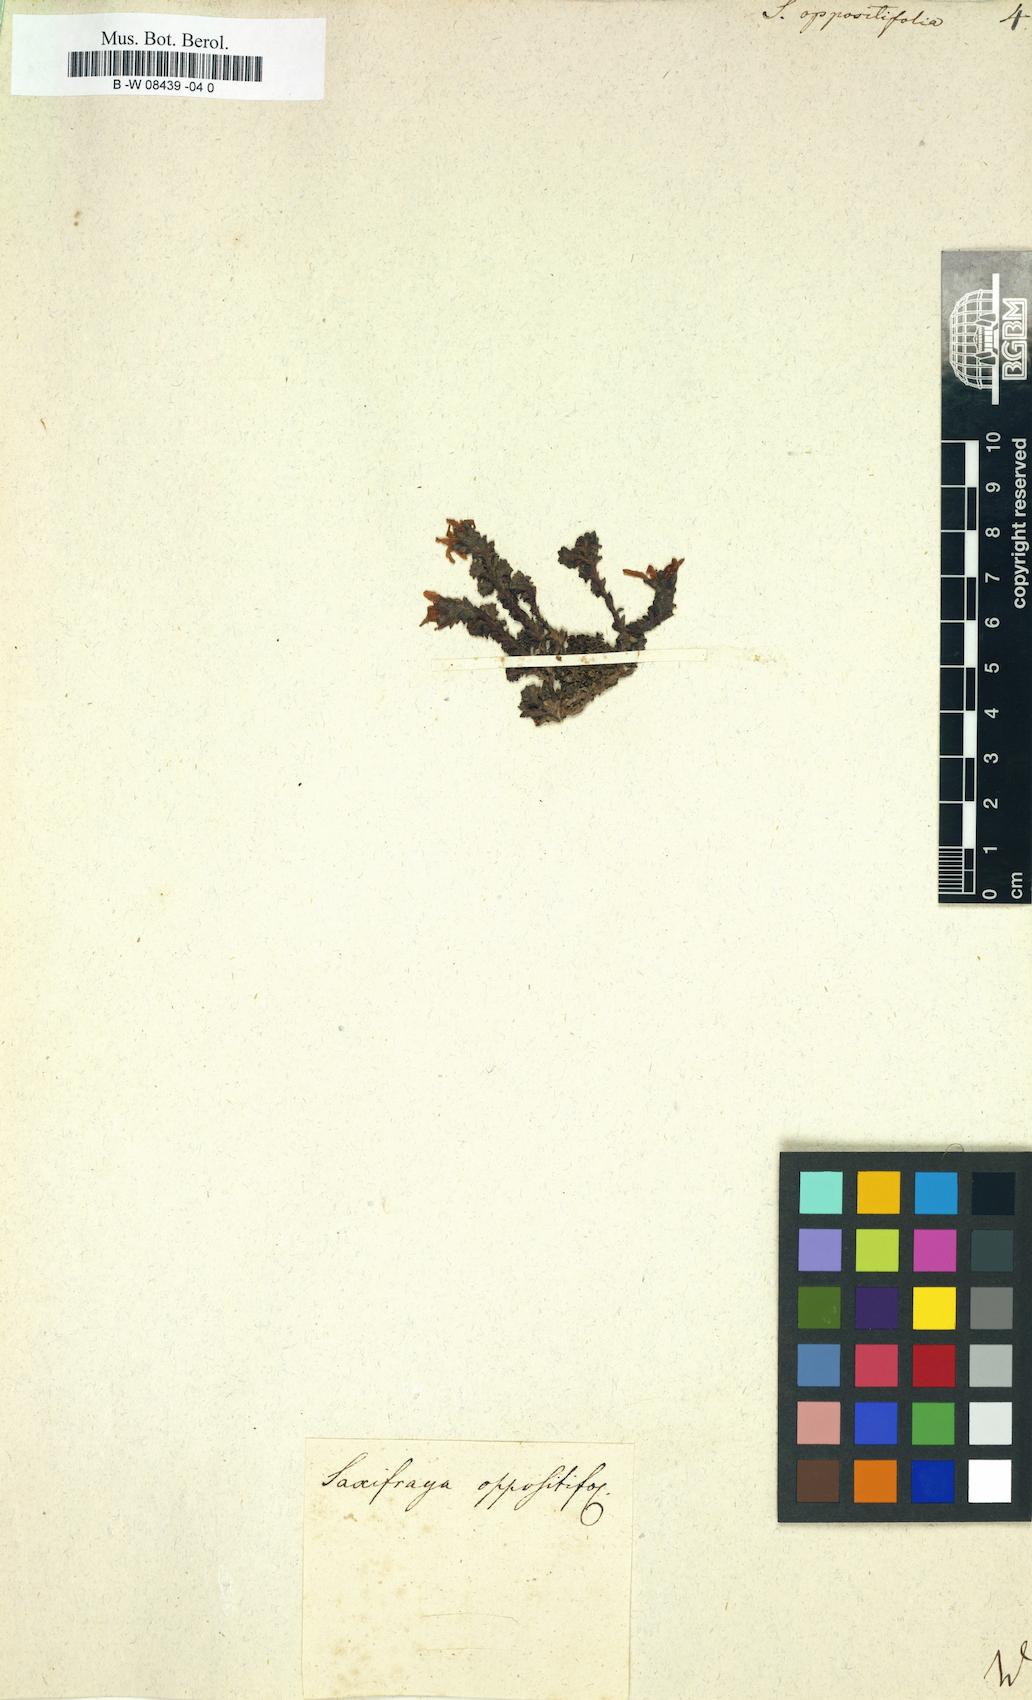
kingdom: Plantae
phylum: Tracheophyta
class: Magnoliopsida
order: Saxifragales
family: Saxifragaceae
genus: Saxifraga
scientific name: Saxifraga oppositifolia
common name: Purple saxifrage
